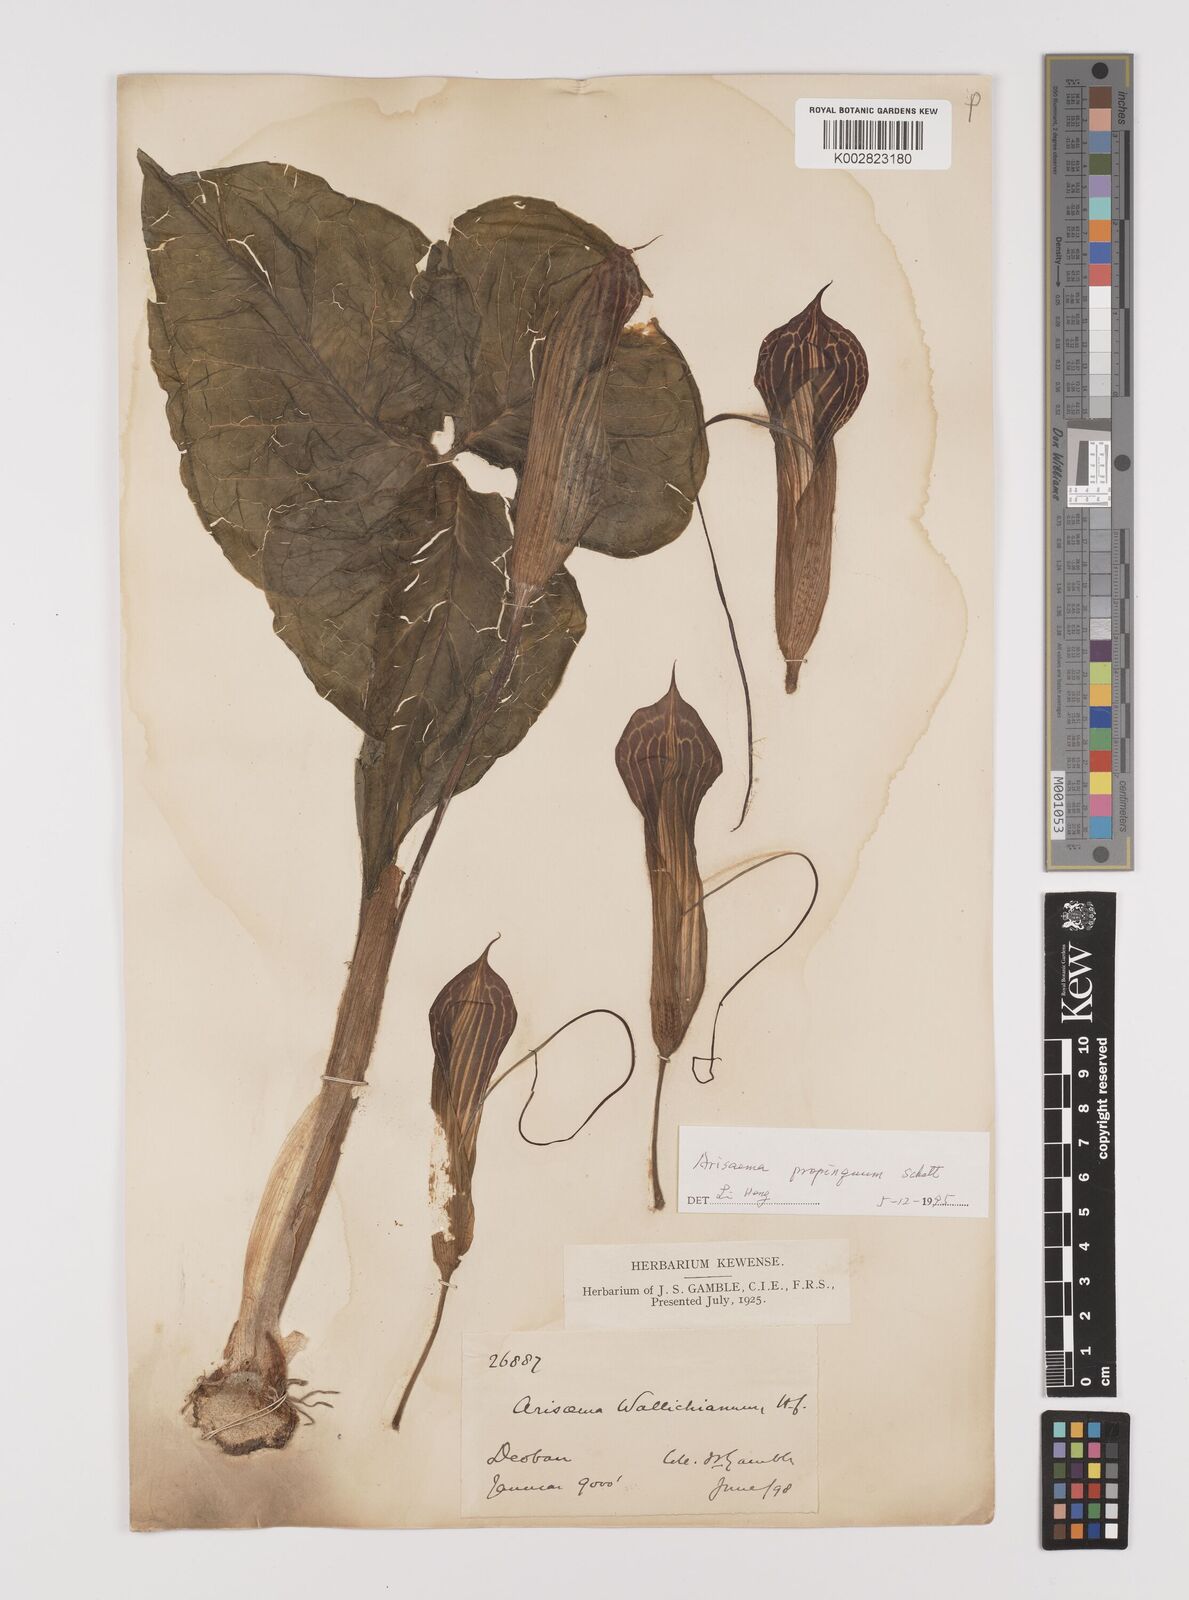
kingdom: Plantae
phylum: Tracheophyta
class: Liliopsida
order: Alismatales
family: Araceae
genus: Arisaema
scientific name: Arisaema propinquum
